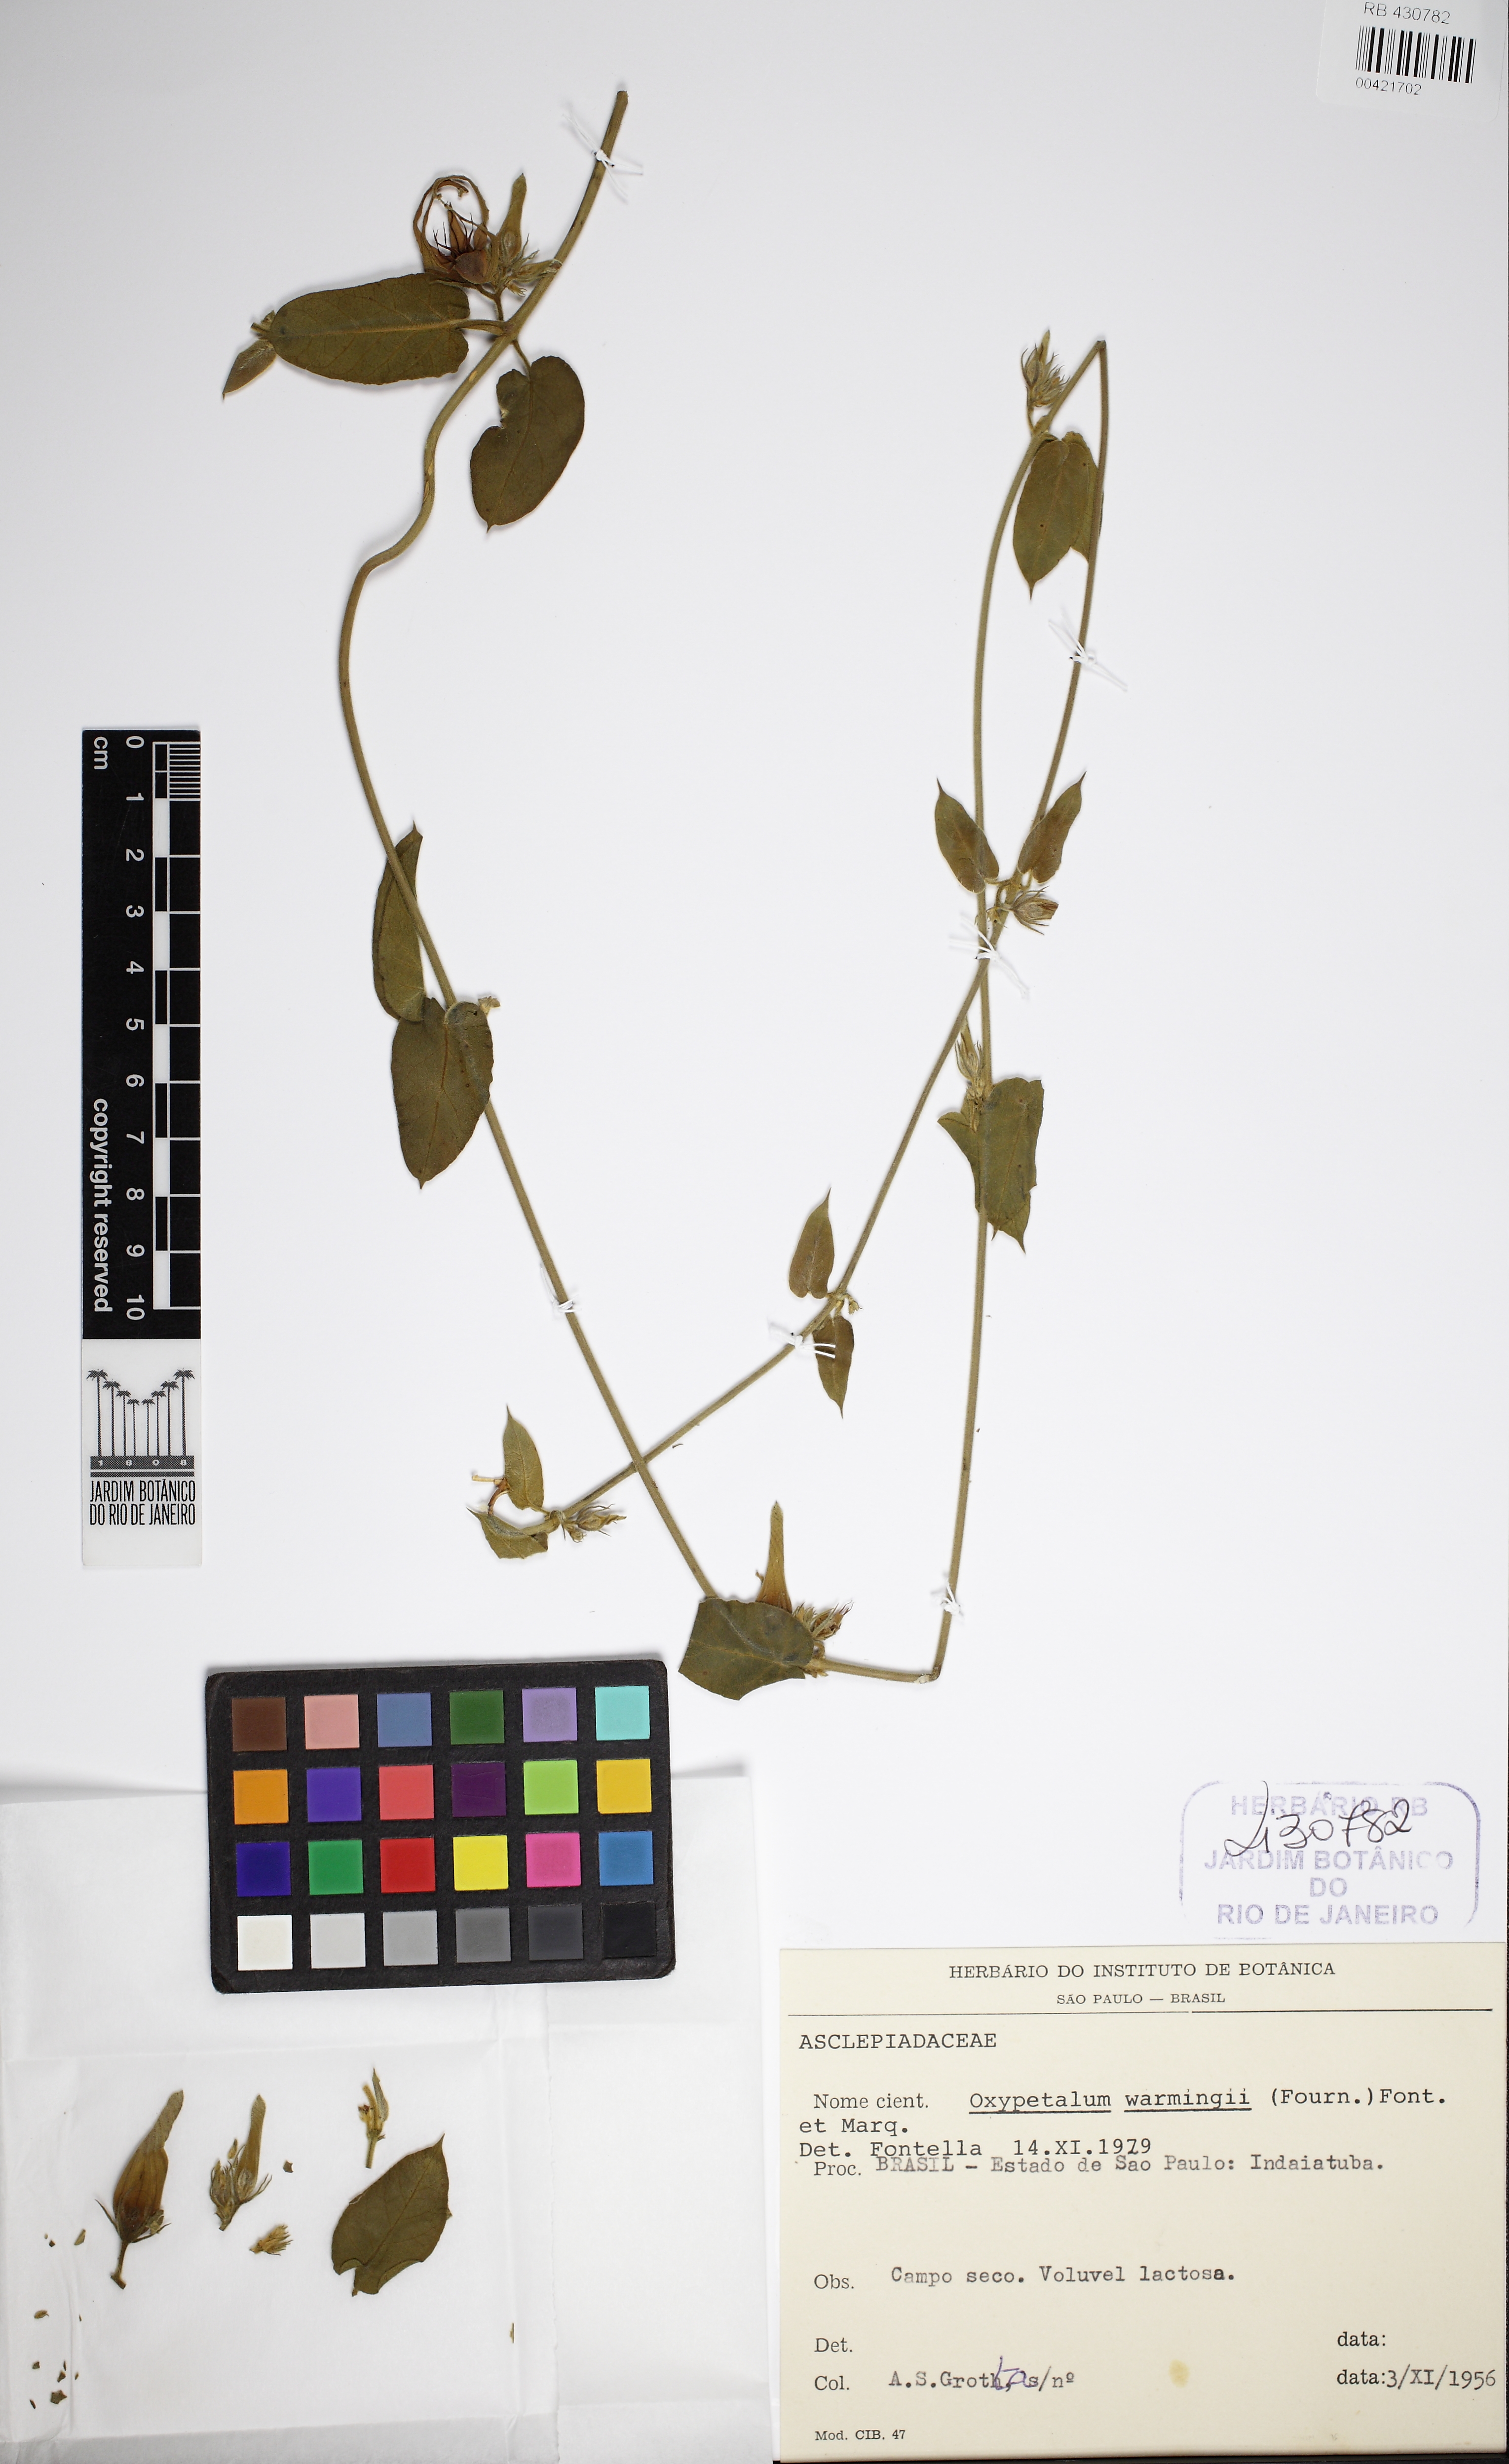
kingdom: Plantae
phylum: Tracheophyta
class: Magnoliopsida
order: Gentianales
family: Apocynaceae
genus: Oxypetalum
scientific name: Oxypetalum warmingii
